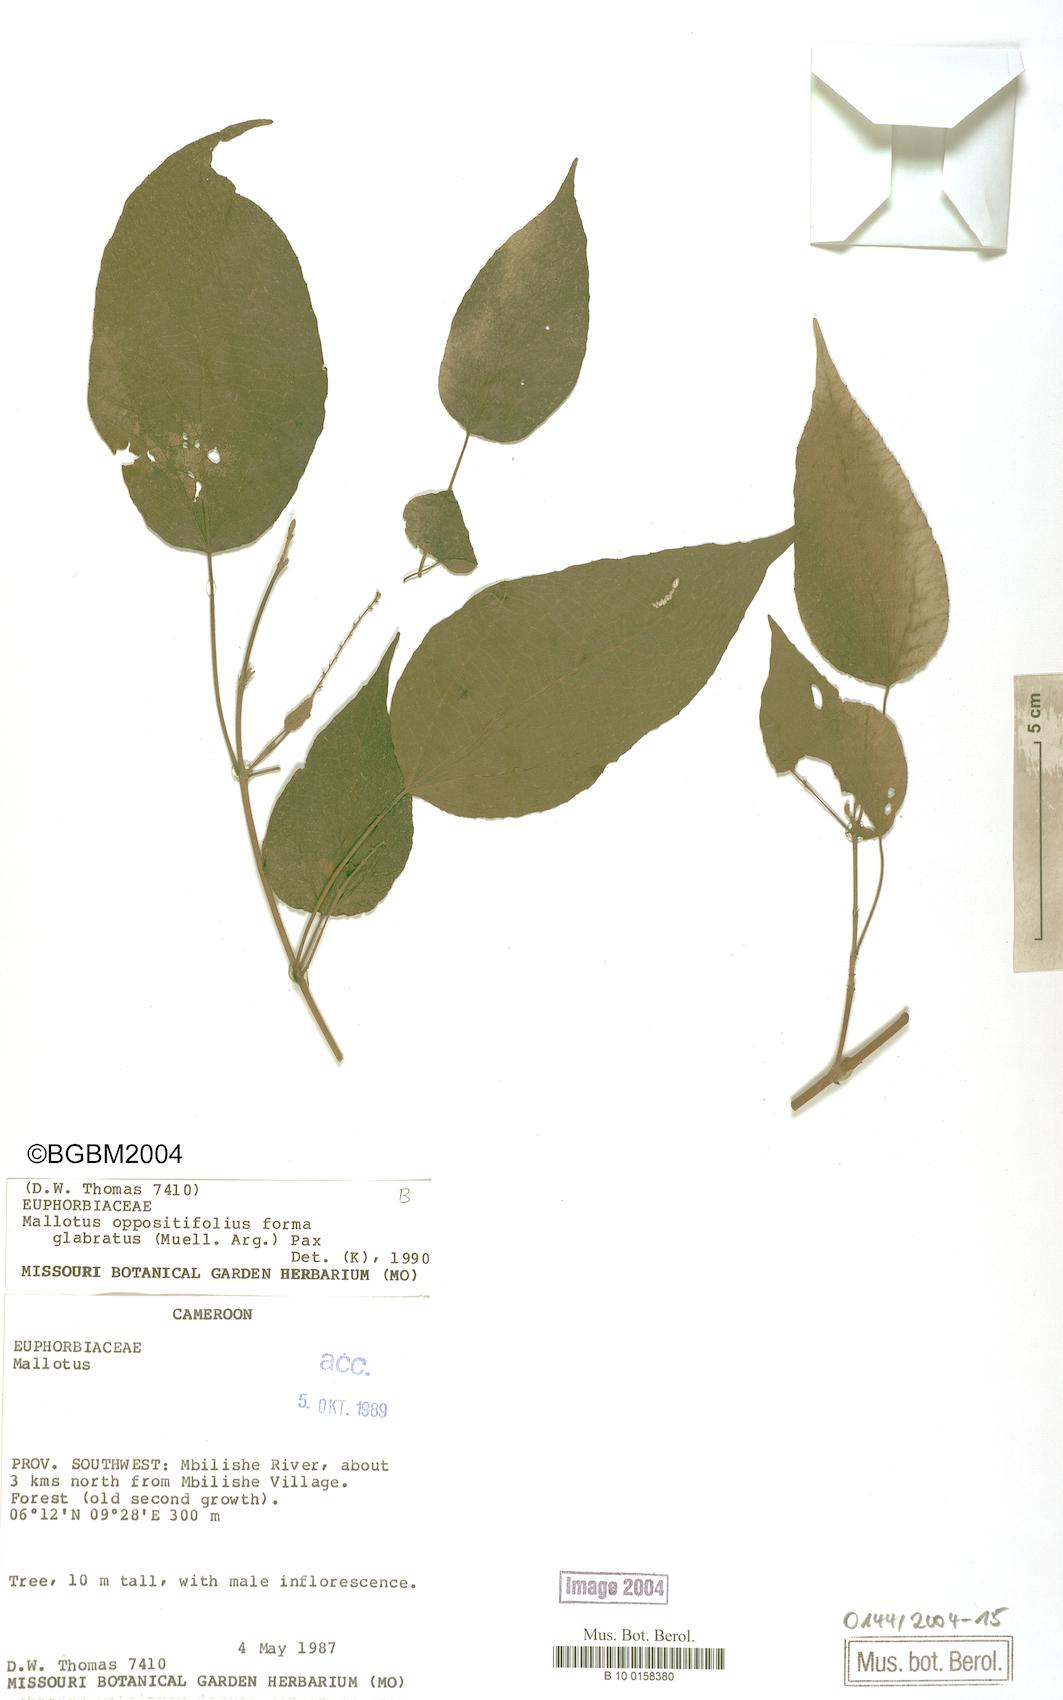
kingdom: Plantae
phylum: Tracheophyta
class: Magnoliopsida
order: Malpighiales
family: Euphorbiaceae
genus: Mallotus
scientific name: Mallotus oppositifolius
